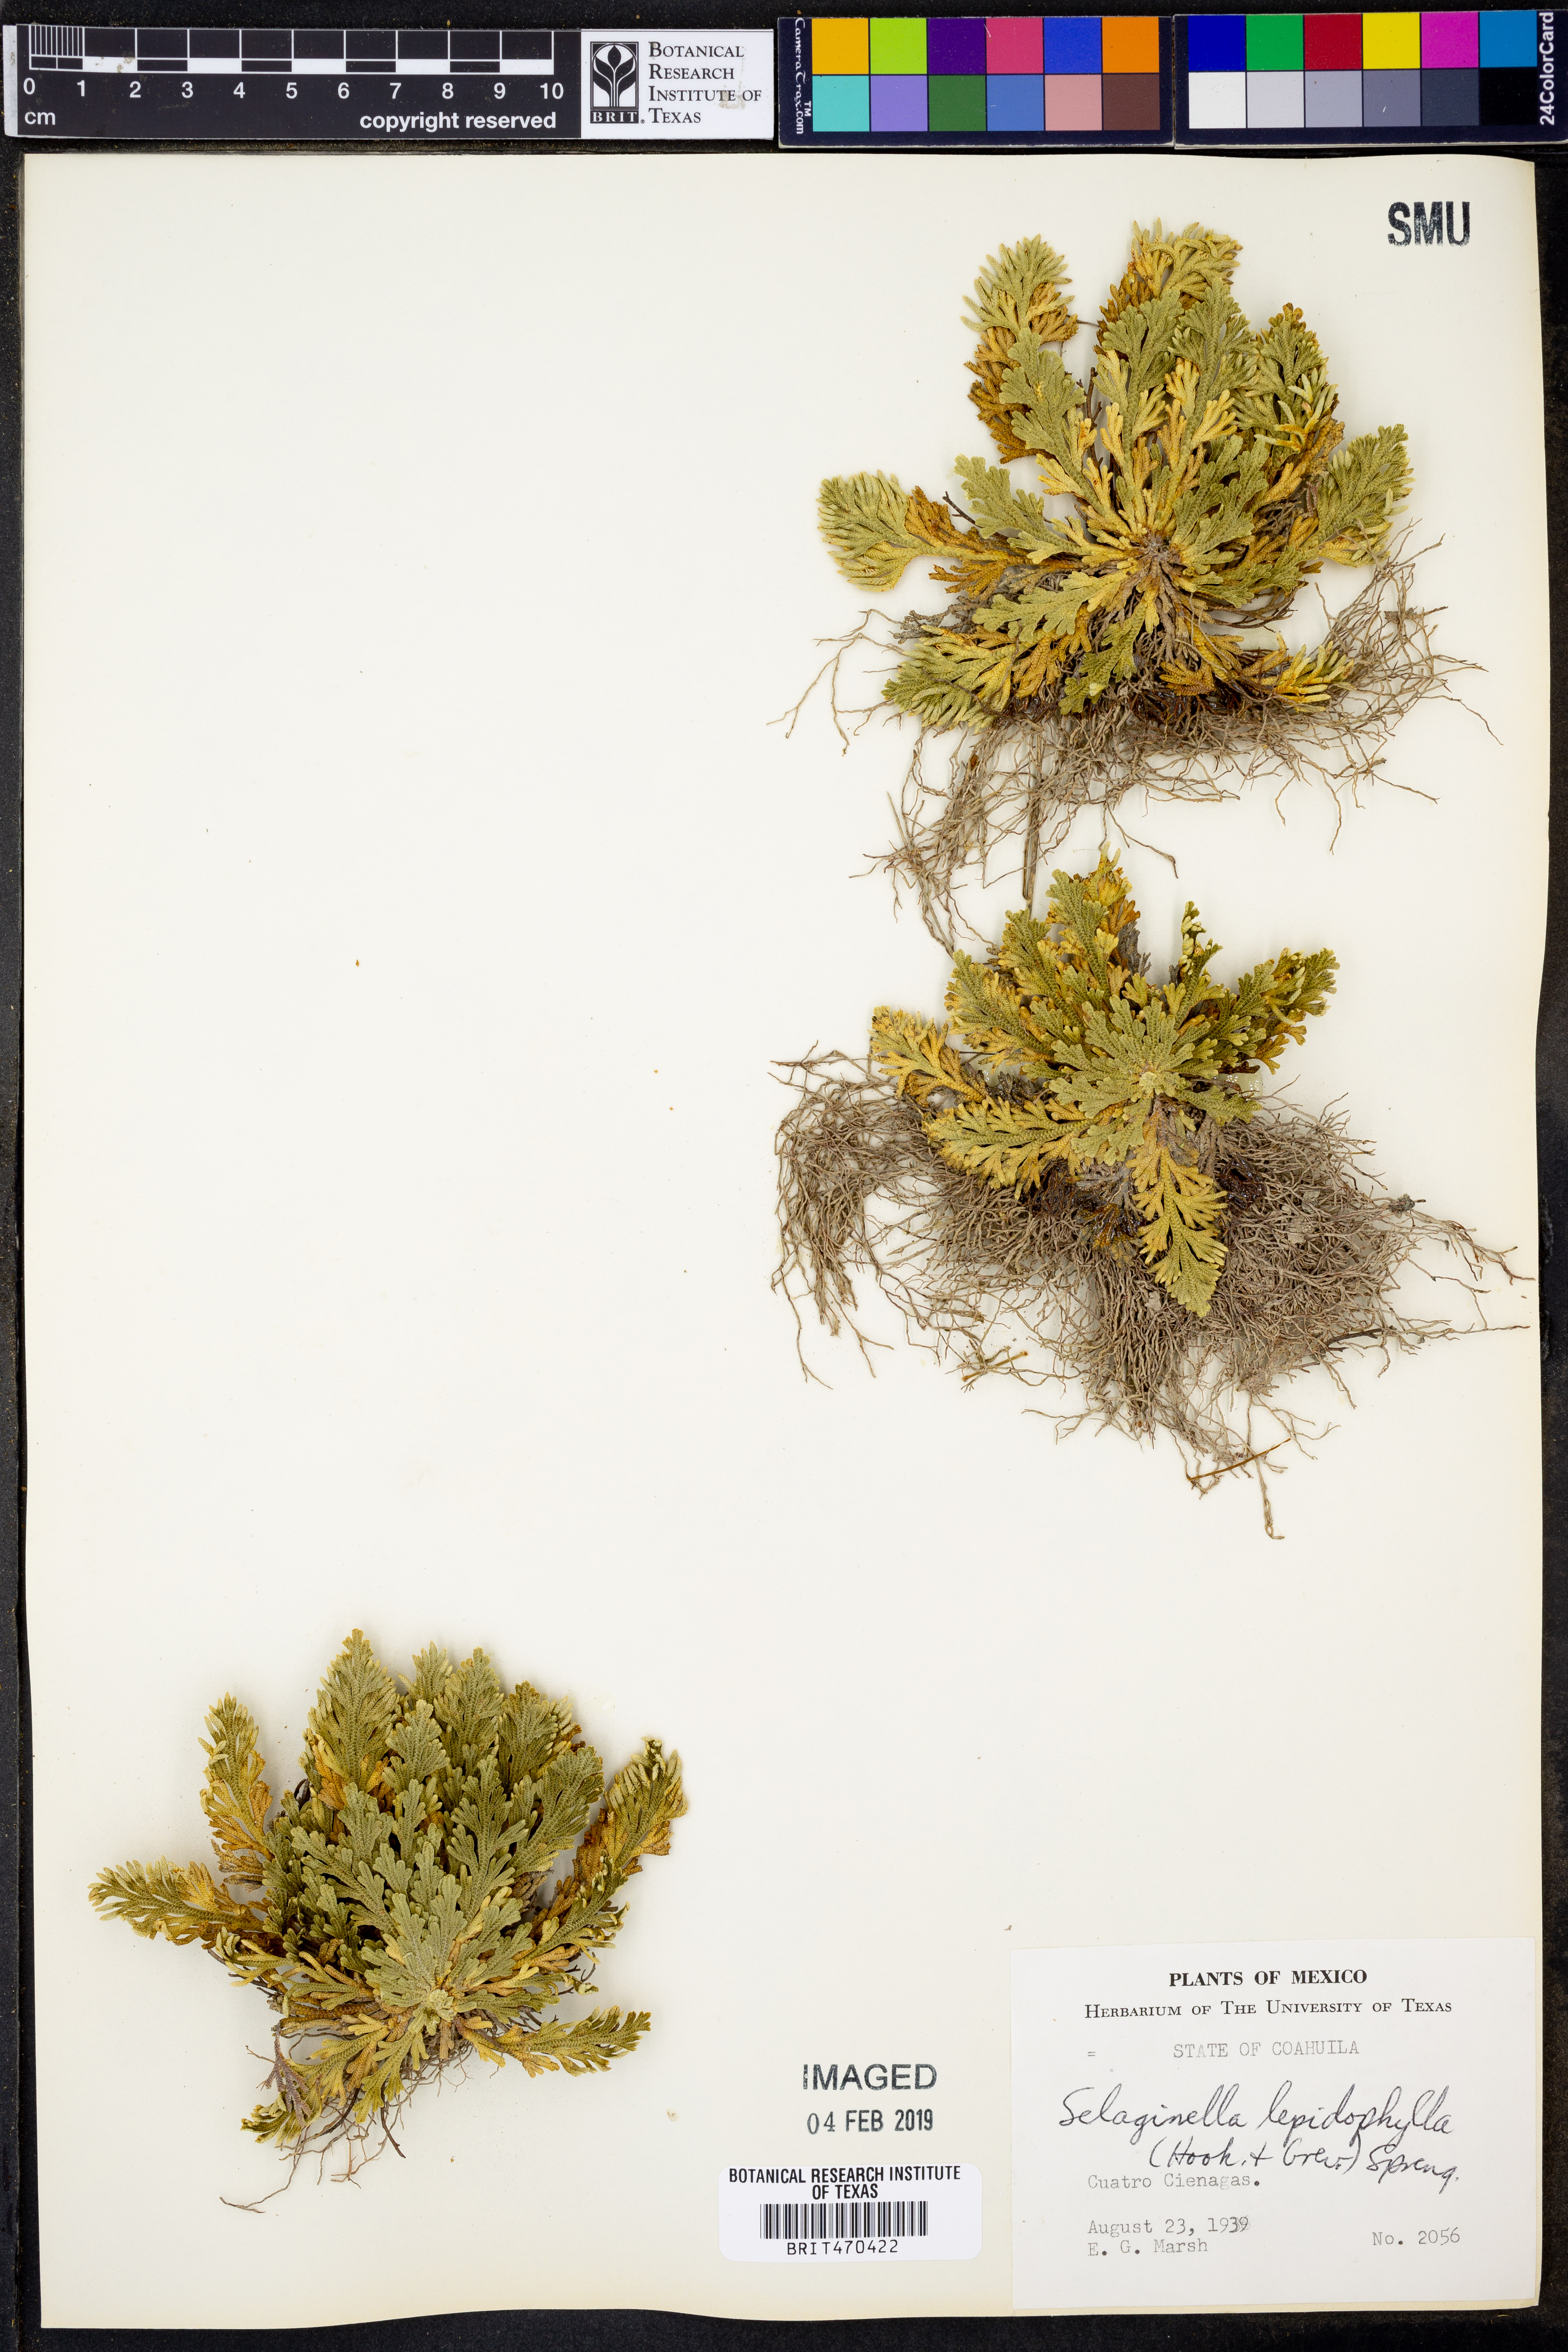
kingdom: Plantae
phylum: Tracheophyta
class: Lycopodiopsida
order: Selaginellales
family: Selaginellaceae
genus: Selaginella
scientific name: Selaginella lepidophylla
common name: Rose-of-jericho
